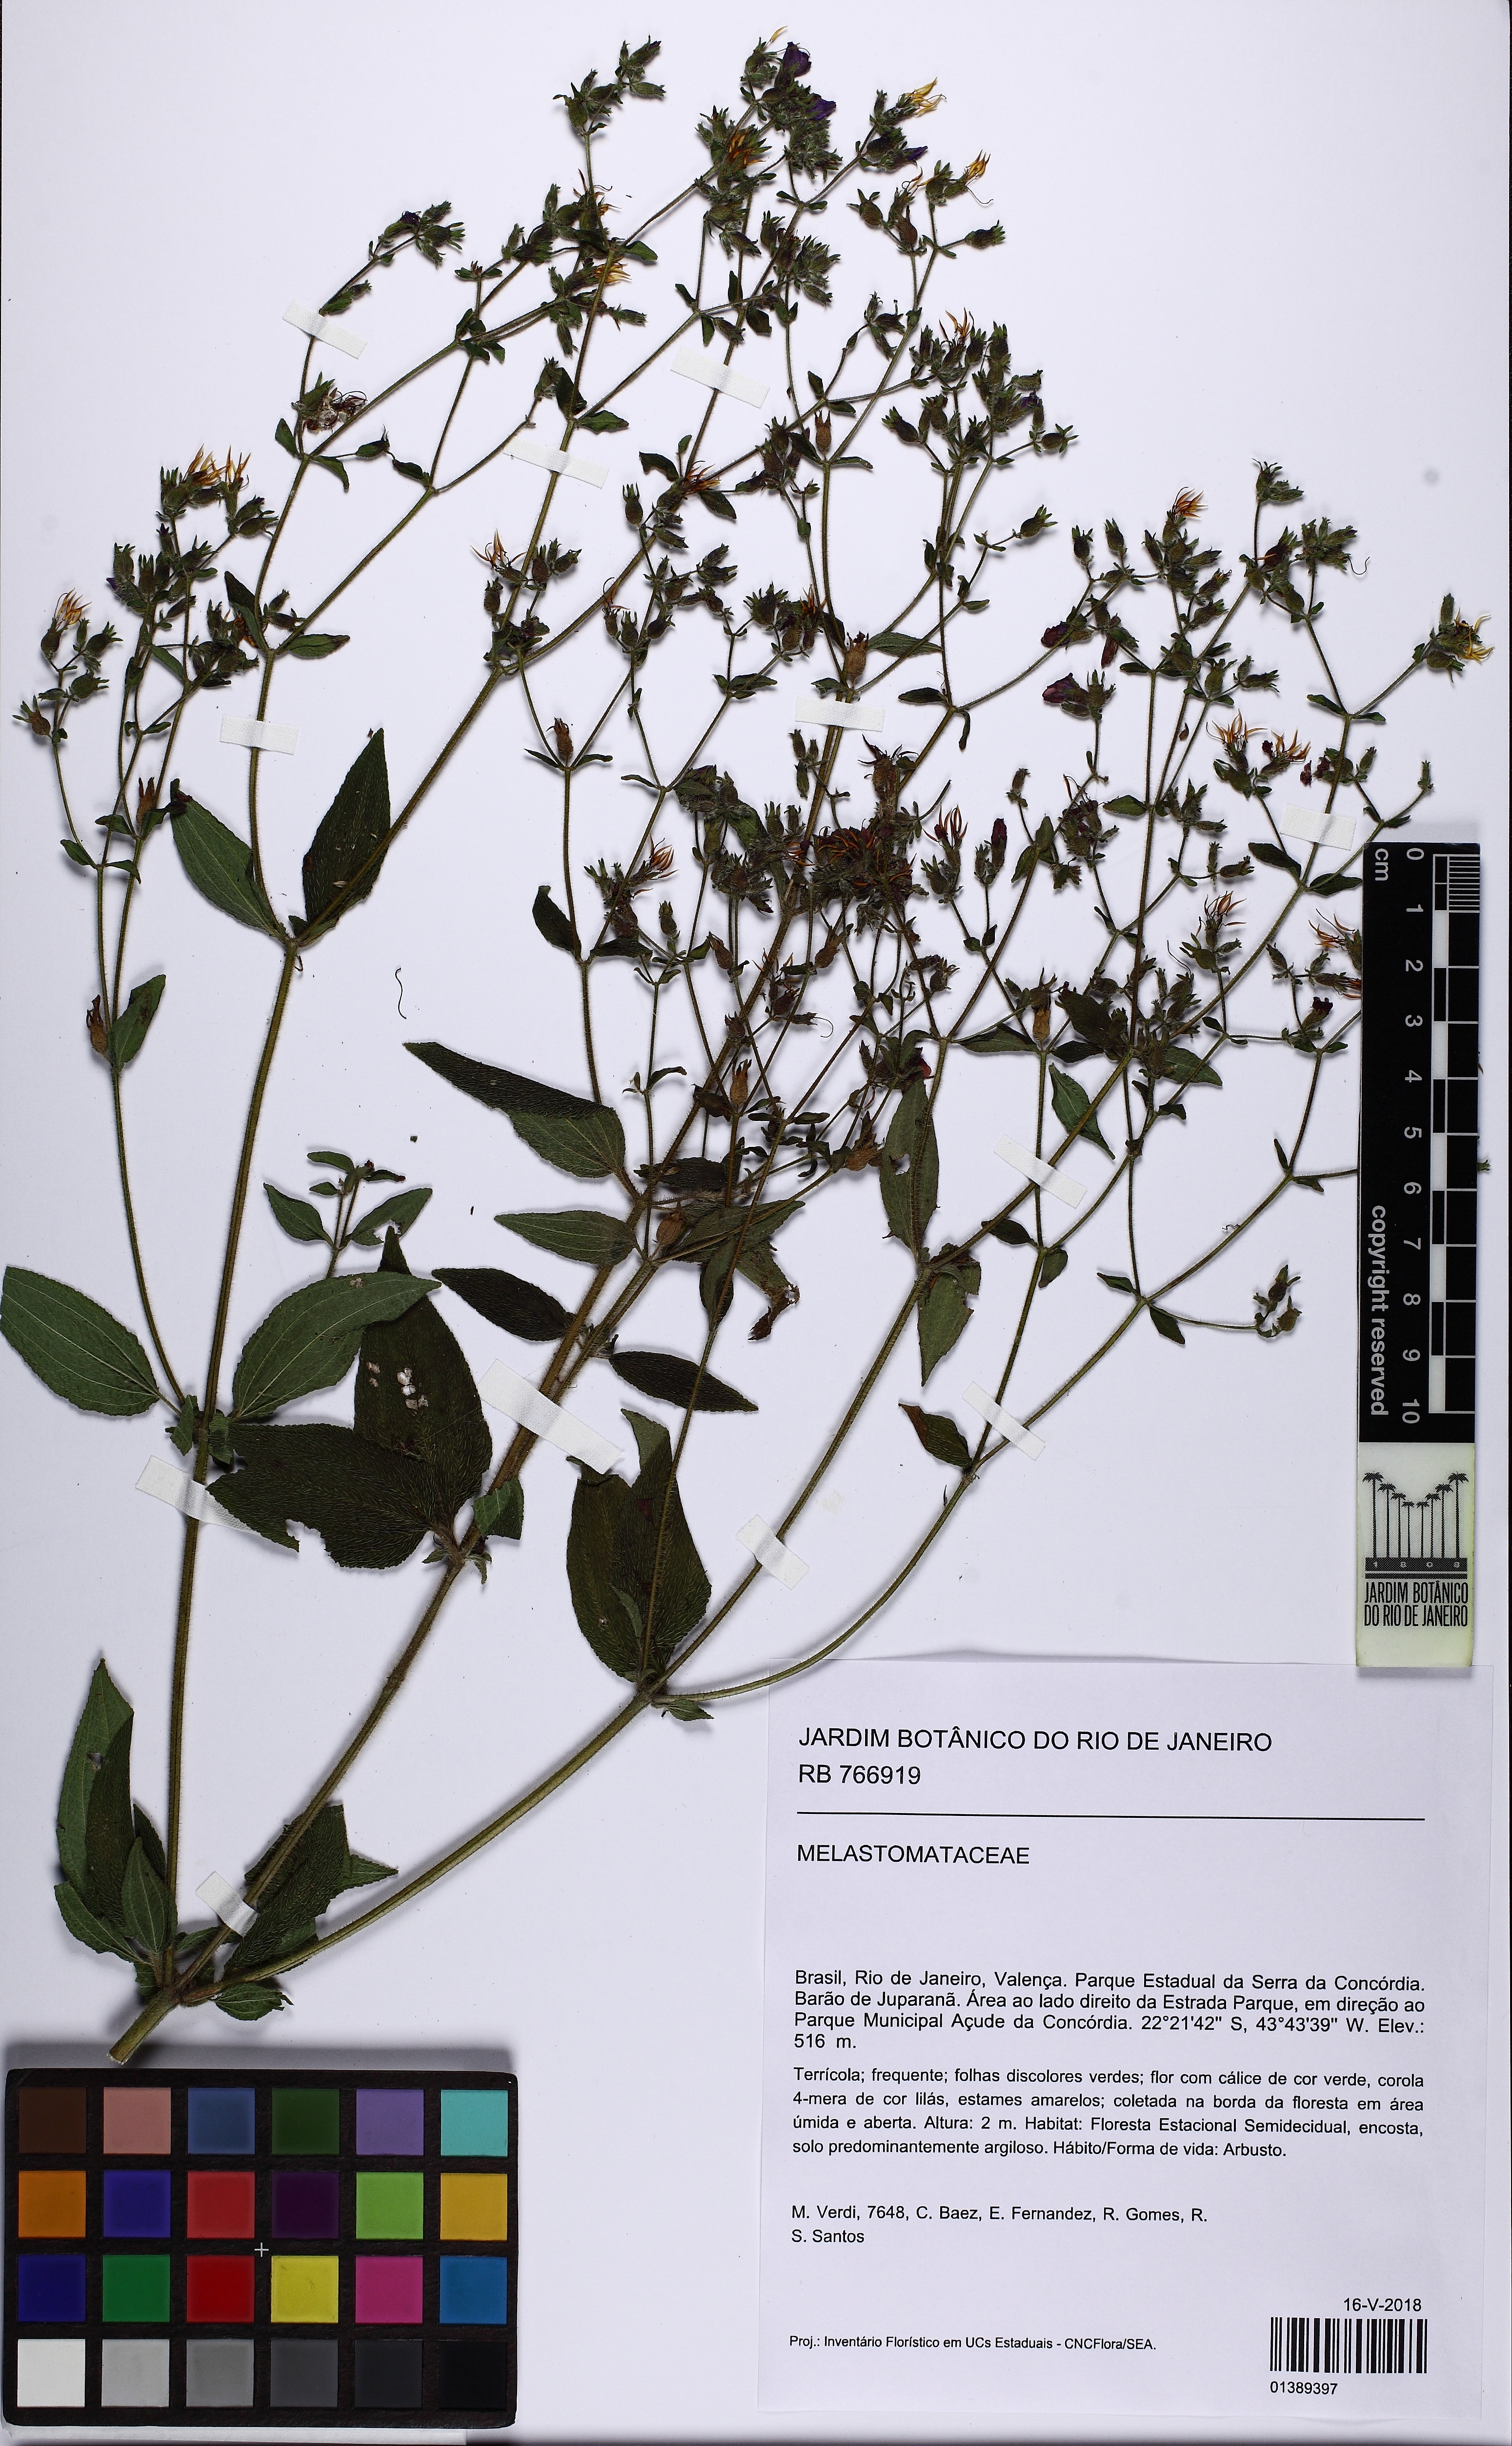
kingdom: Plantae
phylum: Tracheophyta
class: Magnoliopsida
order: Myrtales
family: Melastomataceae
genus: Chaetogastra
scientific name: Chaetogastra sebastianopolitana
